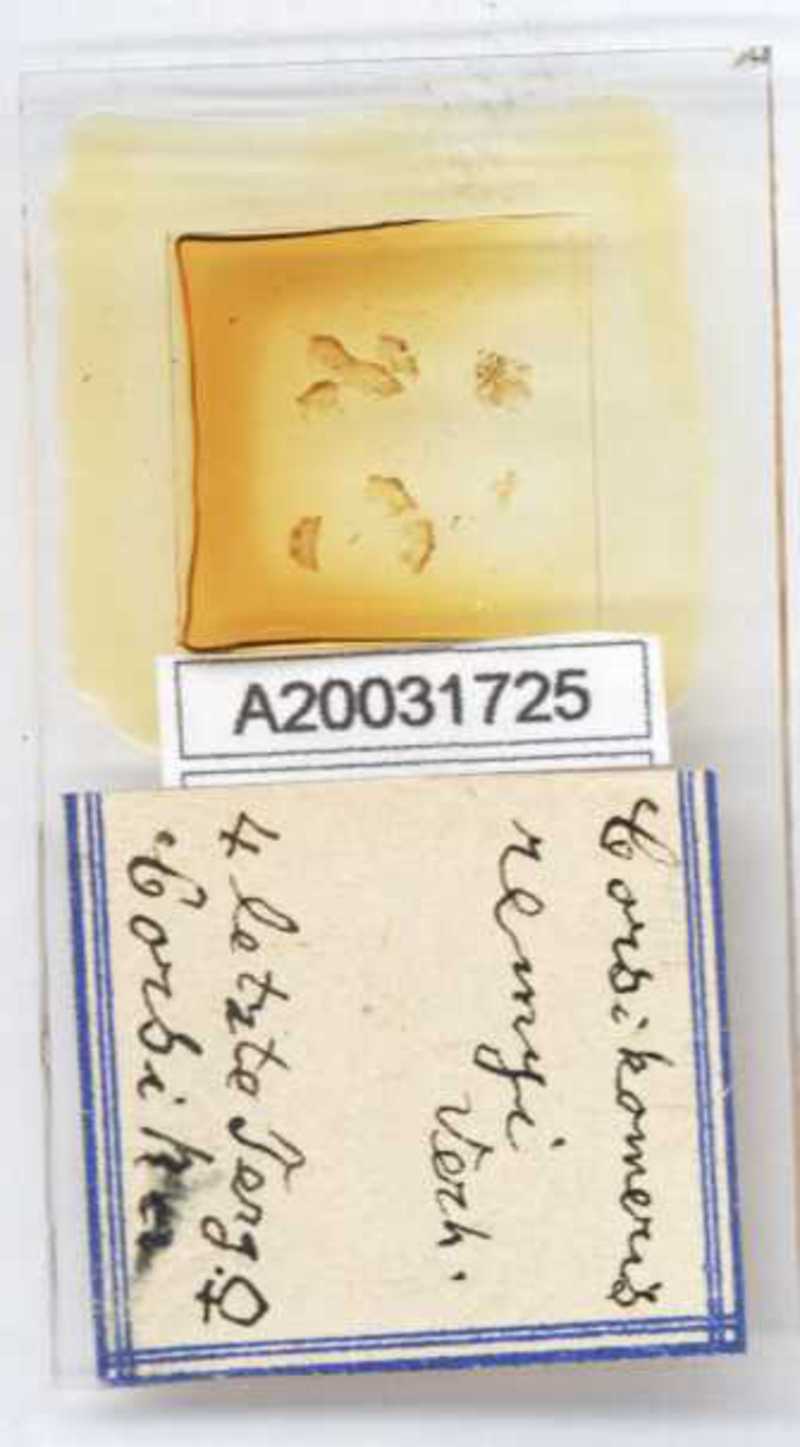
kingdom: Animalia
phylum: Arthropoda
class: Diplopoda
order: Glomerida
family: Glomeridae
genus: Doderia
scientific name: Doderia remyi
